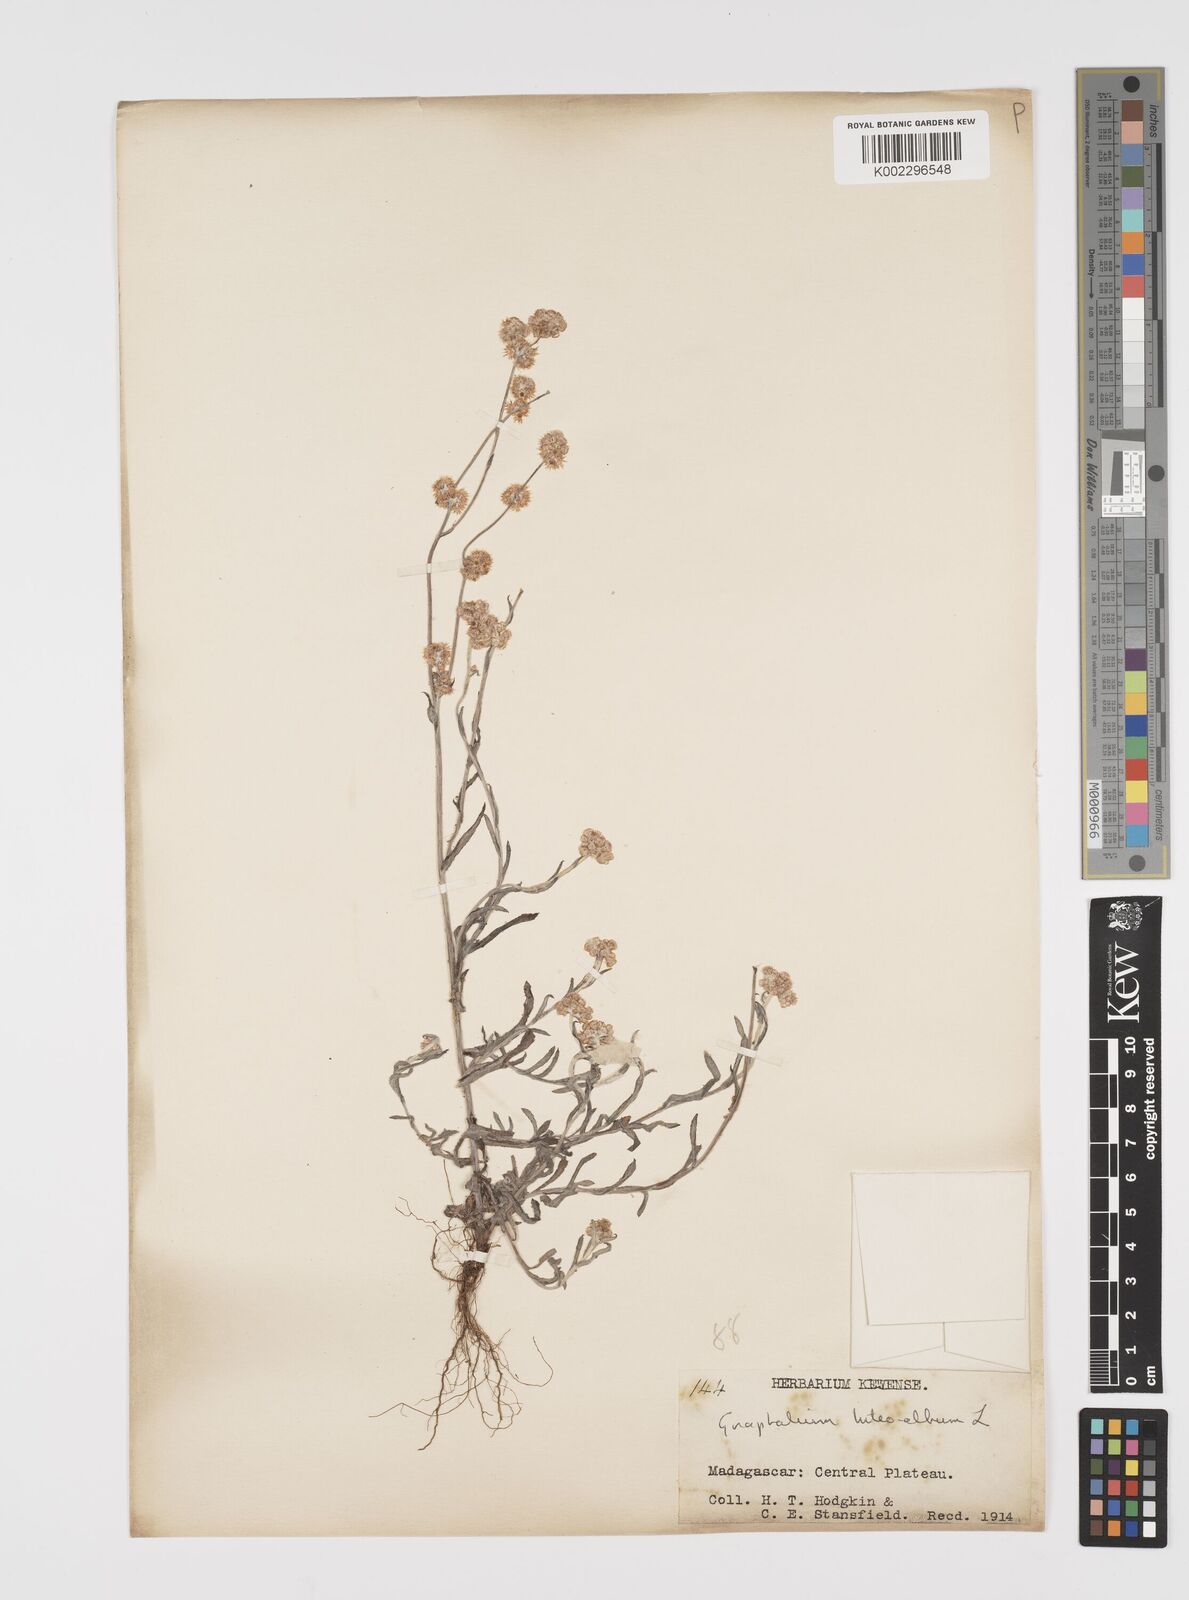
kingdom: Plantae
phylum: Tracheophyta
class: Magnoliopsida
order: Asterales
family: Asteraceae
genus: Helichrysum
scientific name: Helichrysum luteoalbum
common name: Daisy
